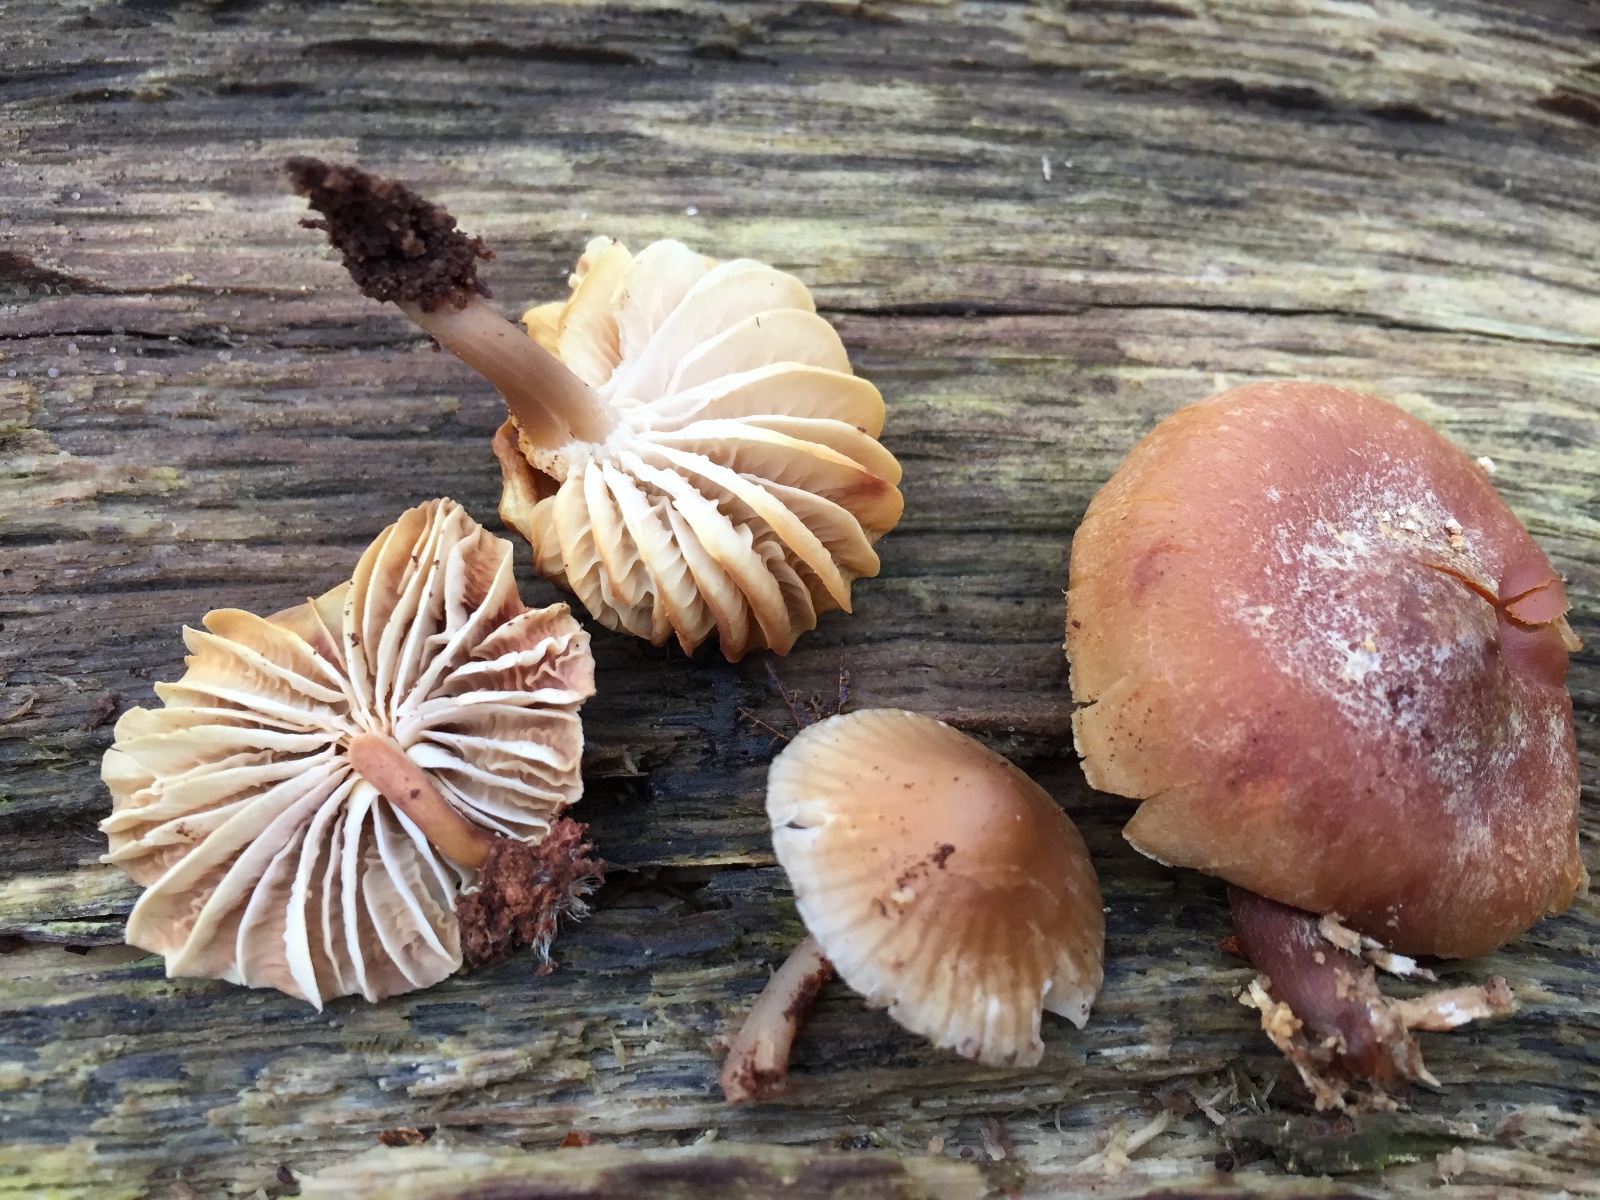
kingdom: Fungi
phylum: Basidiomycota
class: Agaricomycetes
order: Agaricales
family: Mycenaceae
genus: Mycena
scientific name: Mycena tintinnabulum
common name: vinter-huesvamp
